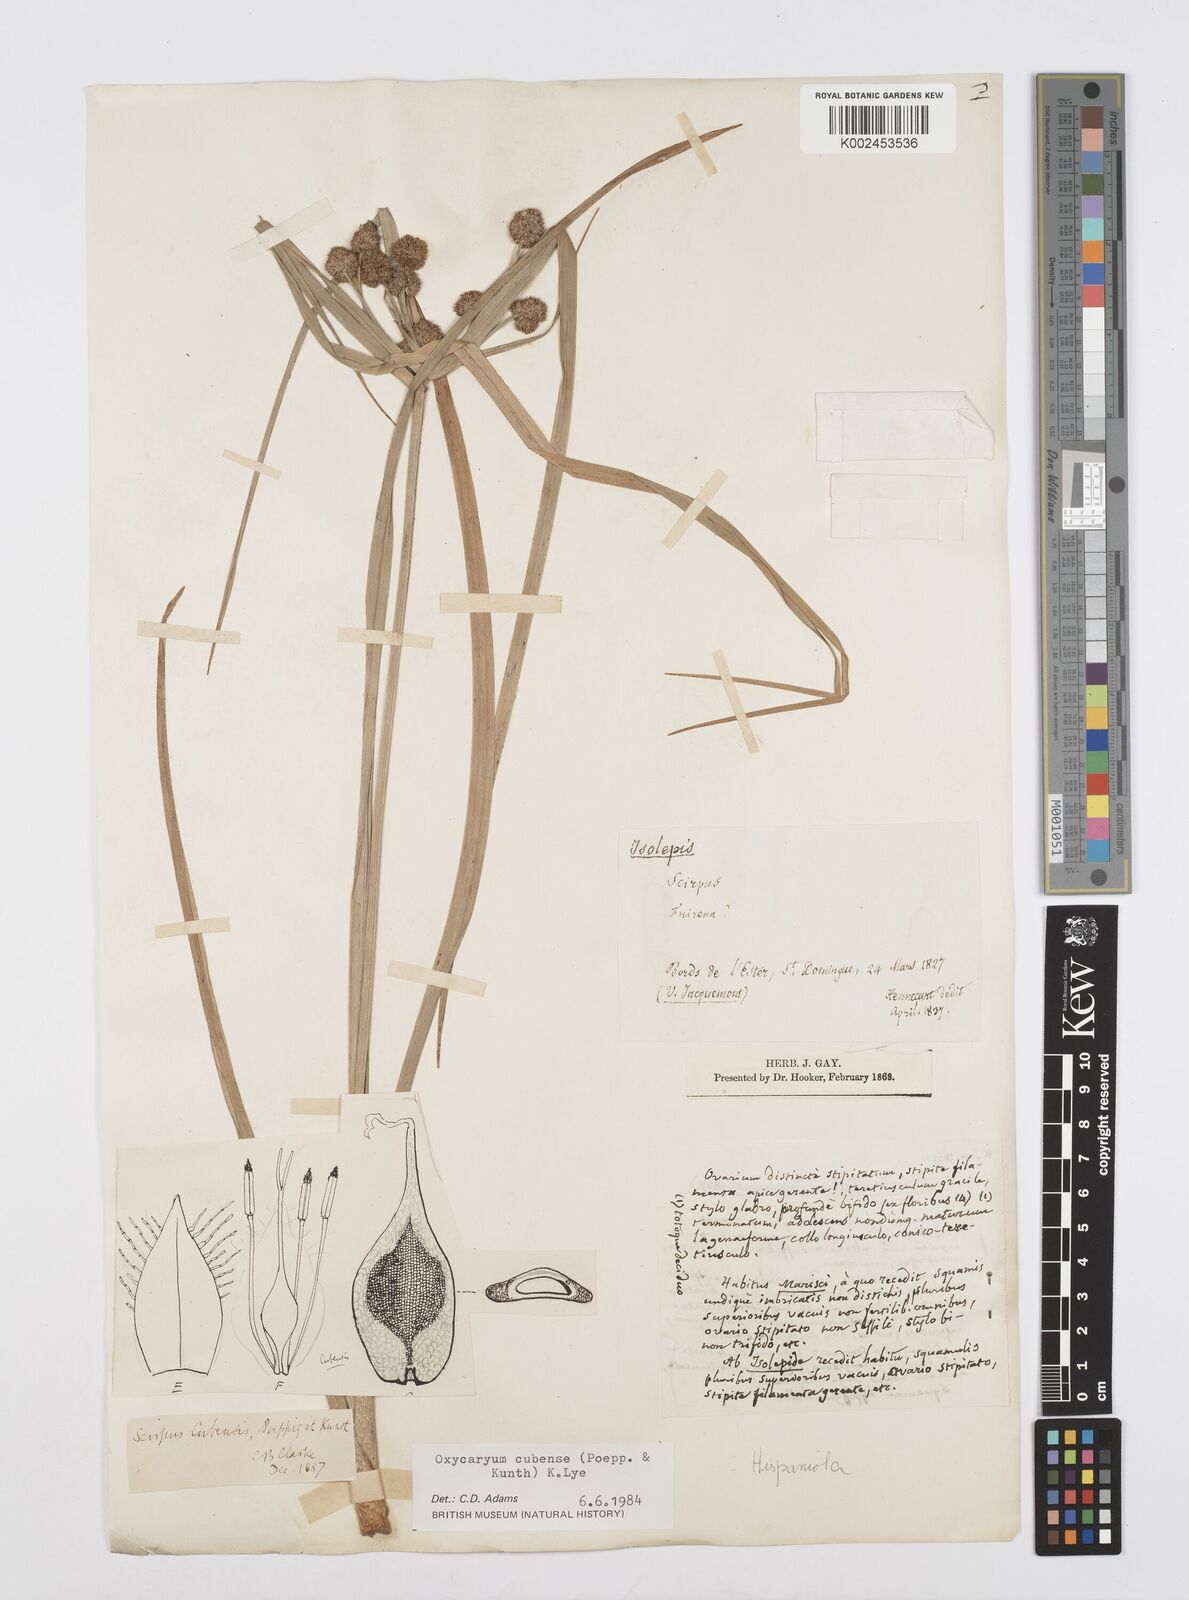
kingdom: Plantae
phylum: Tracheophyta
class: Liliopsida
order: Poales
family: Cyperaceae
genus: Cyperus
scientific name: Cyperus elegans
